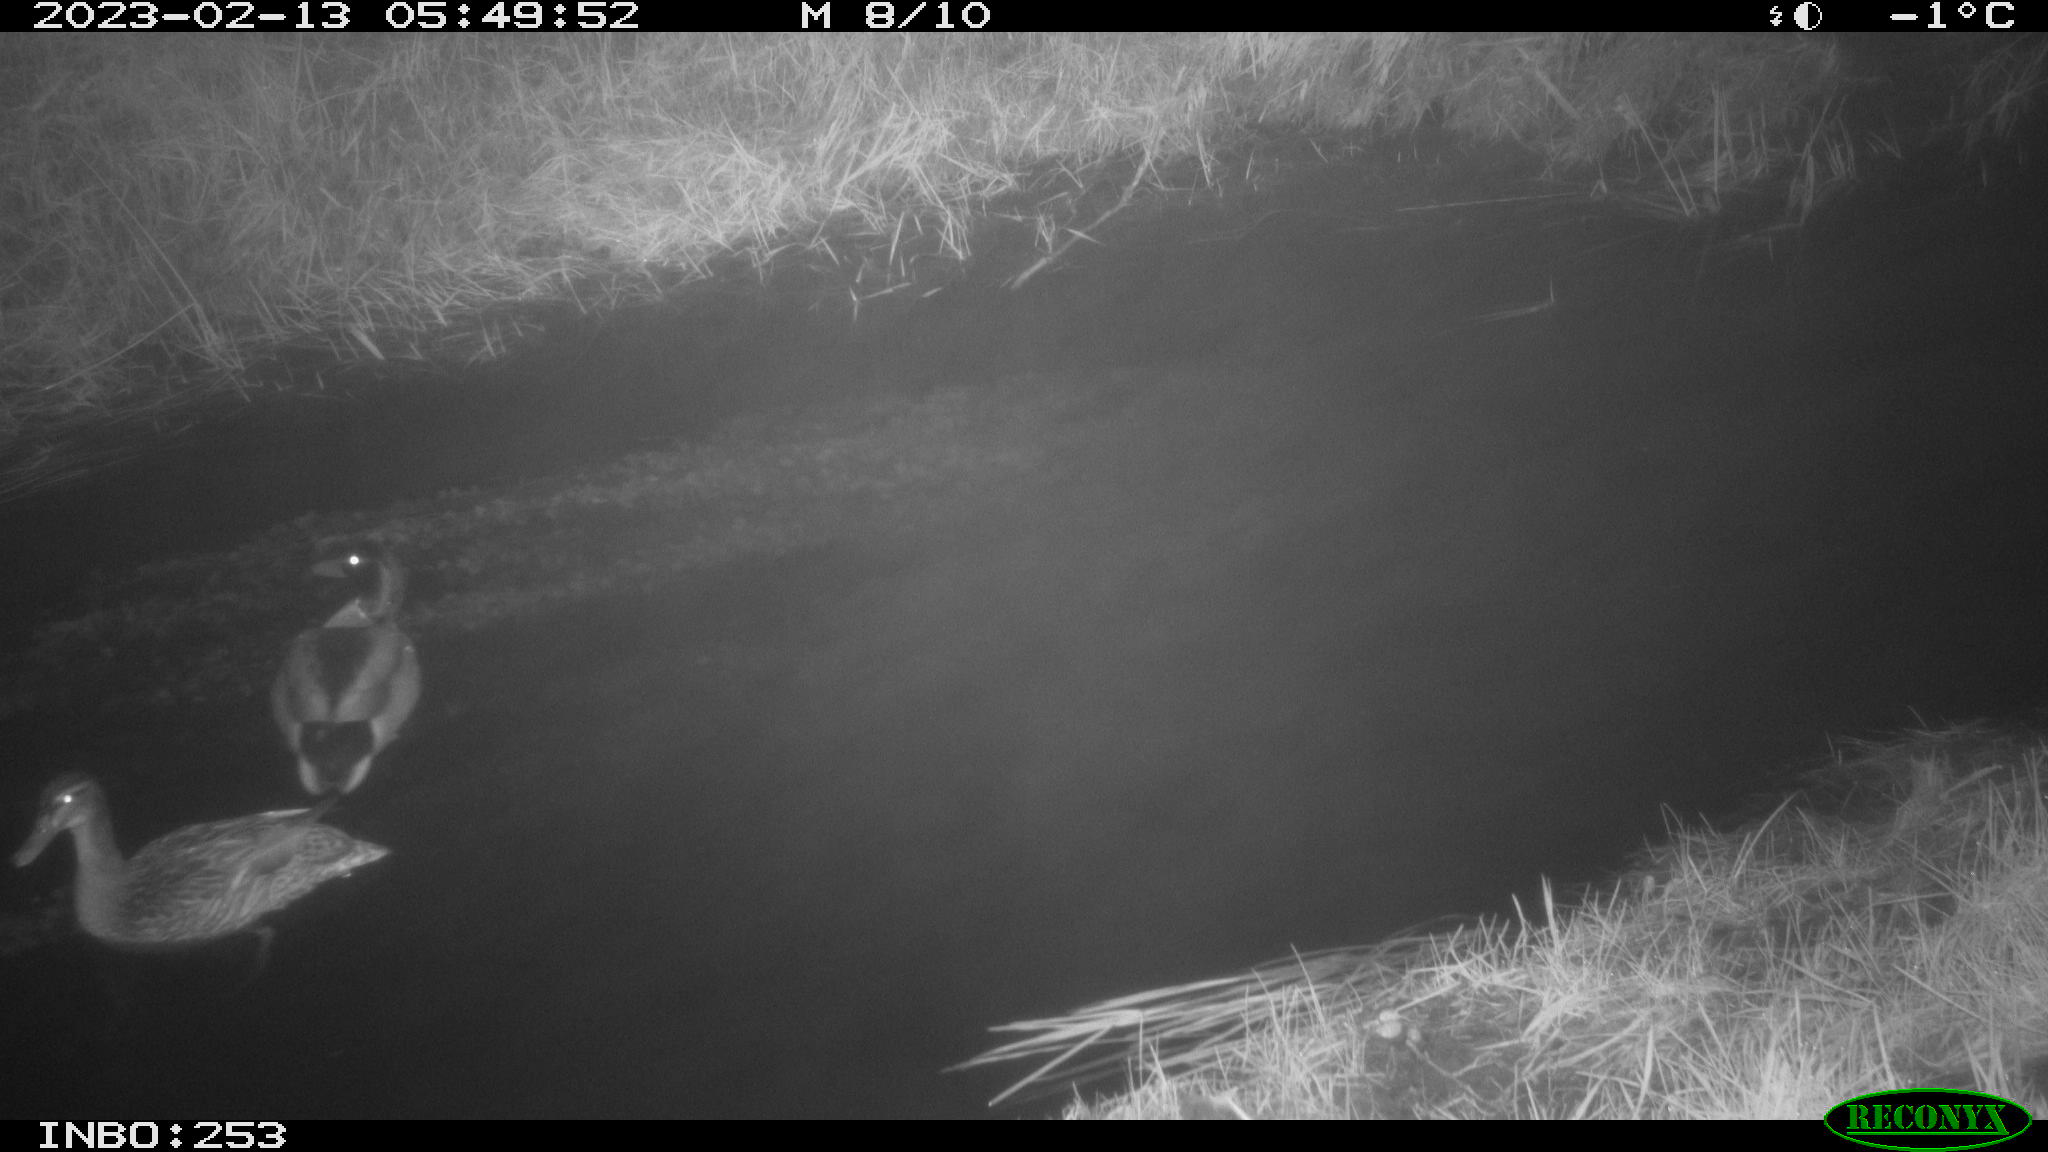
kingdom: Animalia
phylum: Chordata
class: Aves
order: Anseriformes
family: Anatidae
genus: Anas
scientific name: Anas
